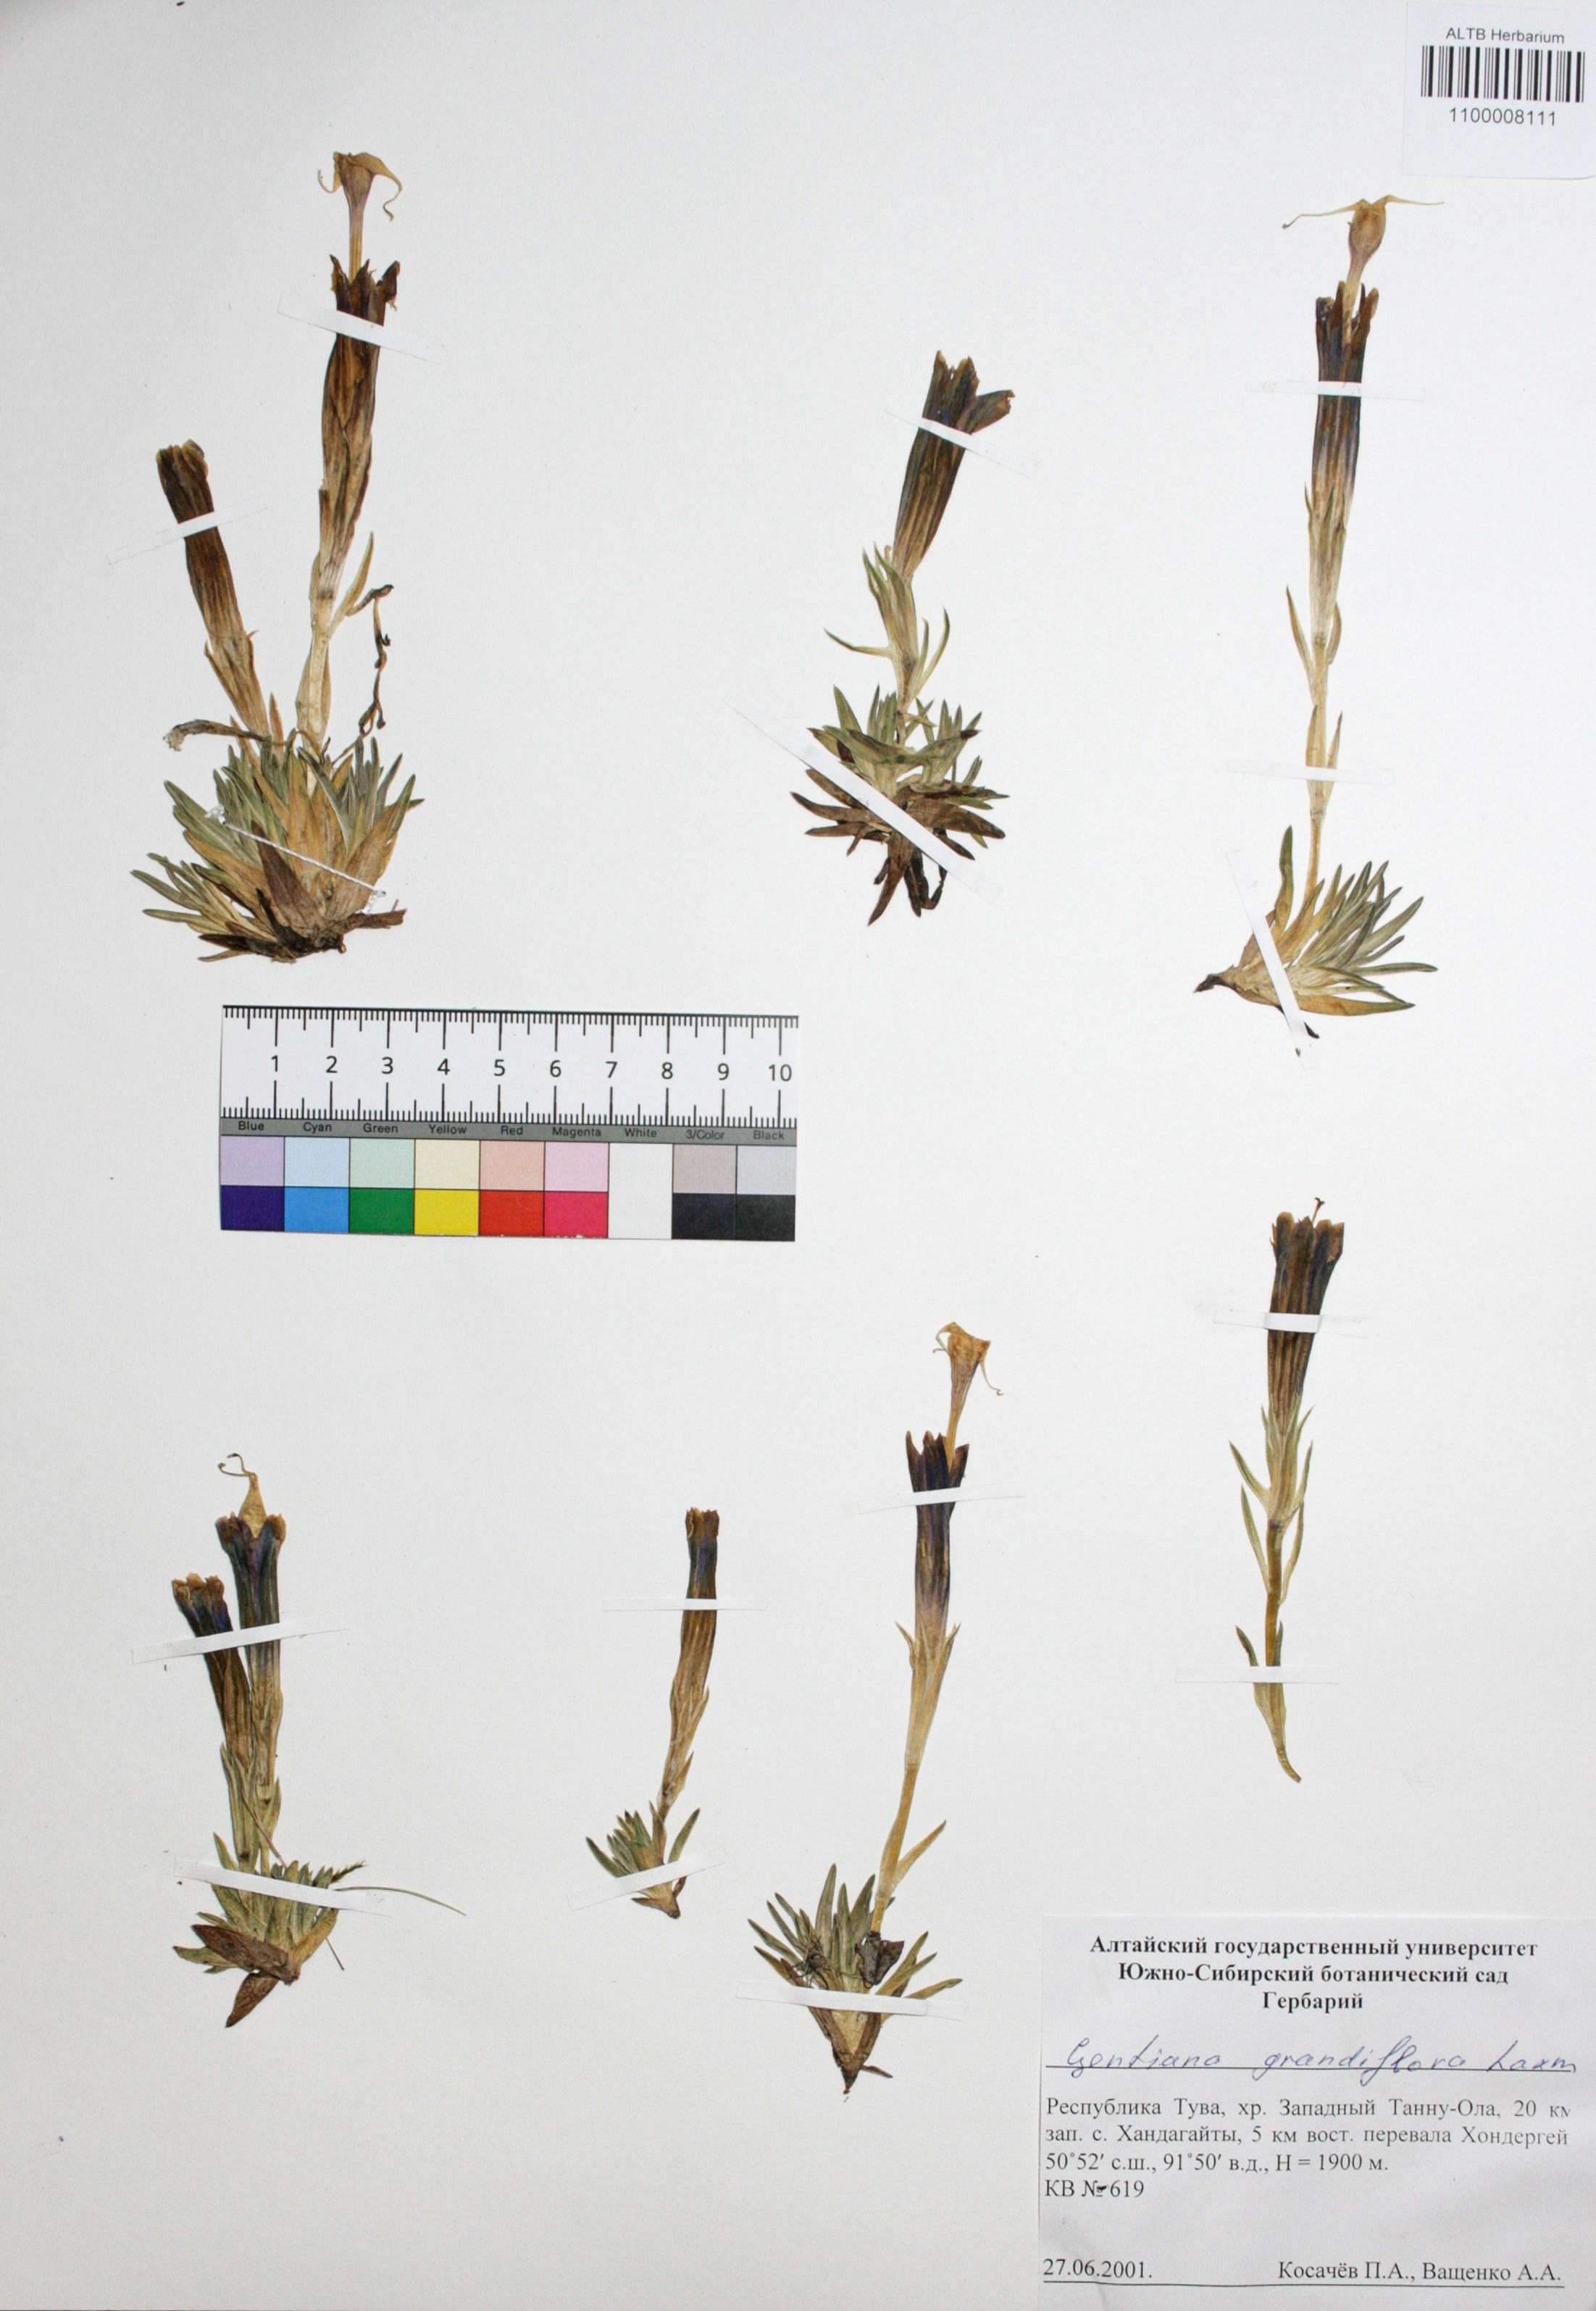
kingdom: Plantae
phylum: Tracheophyta
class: Magnoliopsida
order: Gentianales
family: Gentianaceae
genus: Gentiana
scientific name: Gentiana grandiflora
